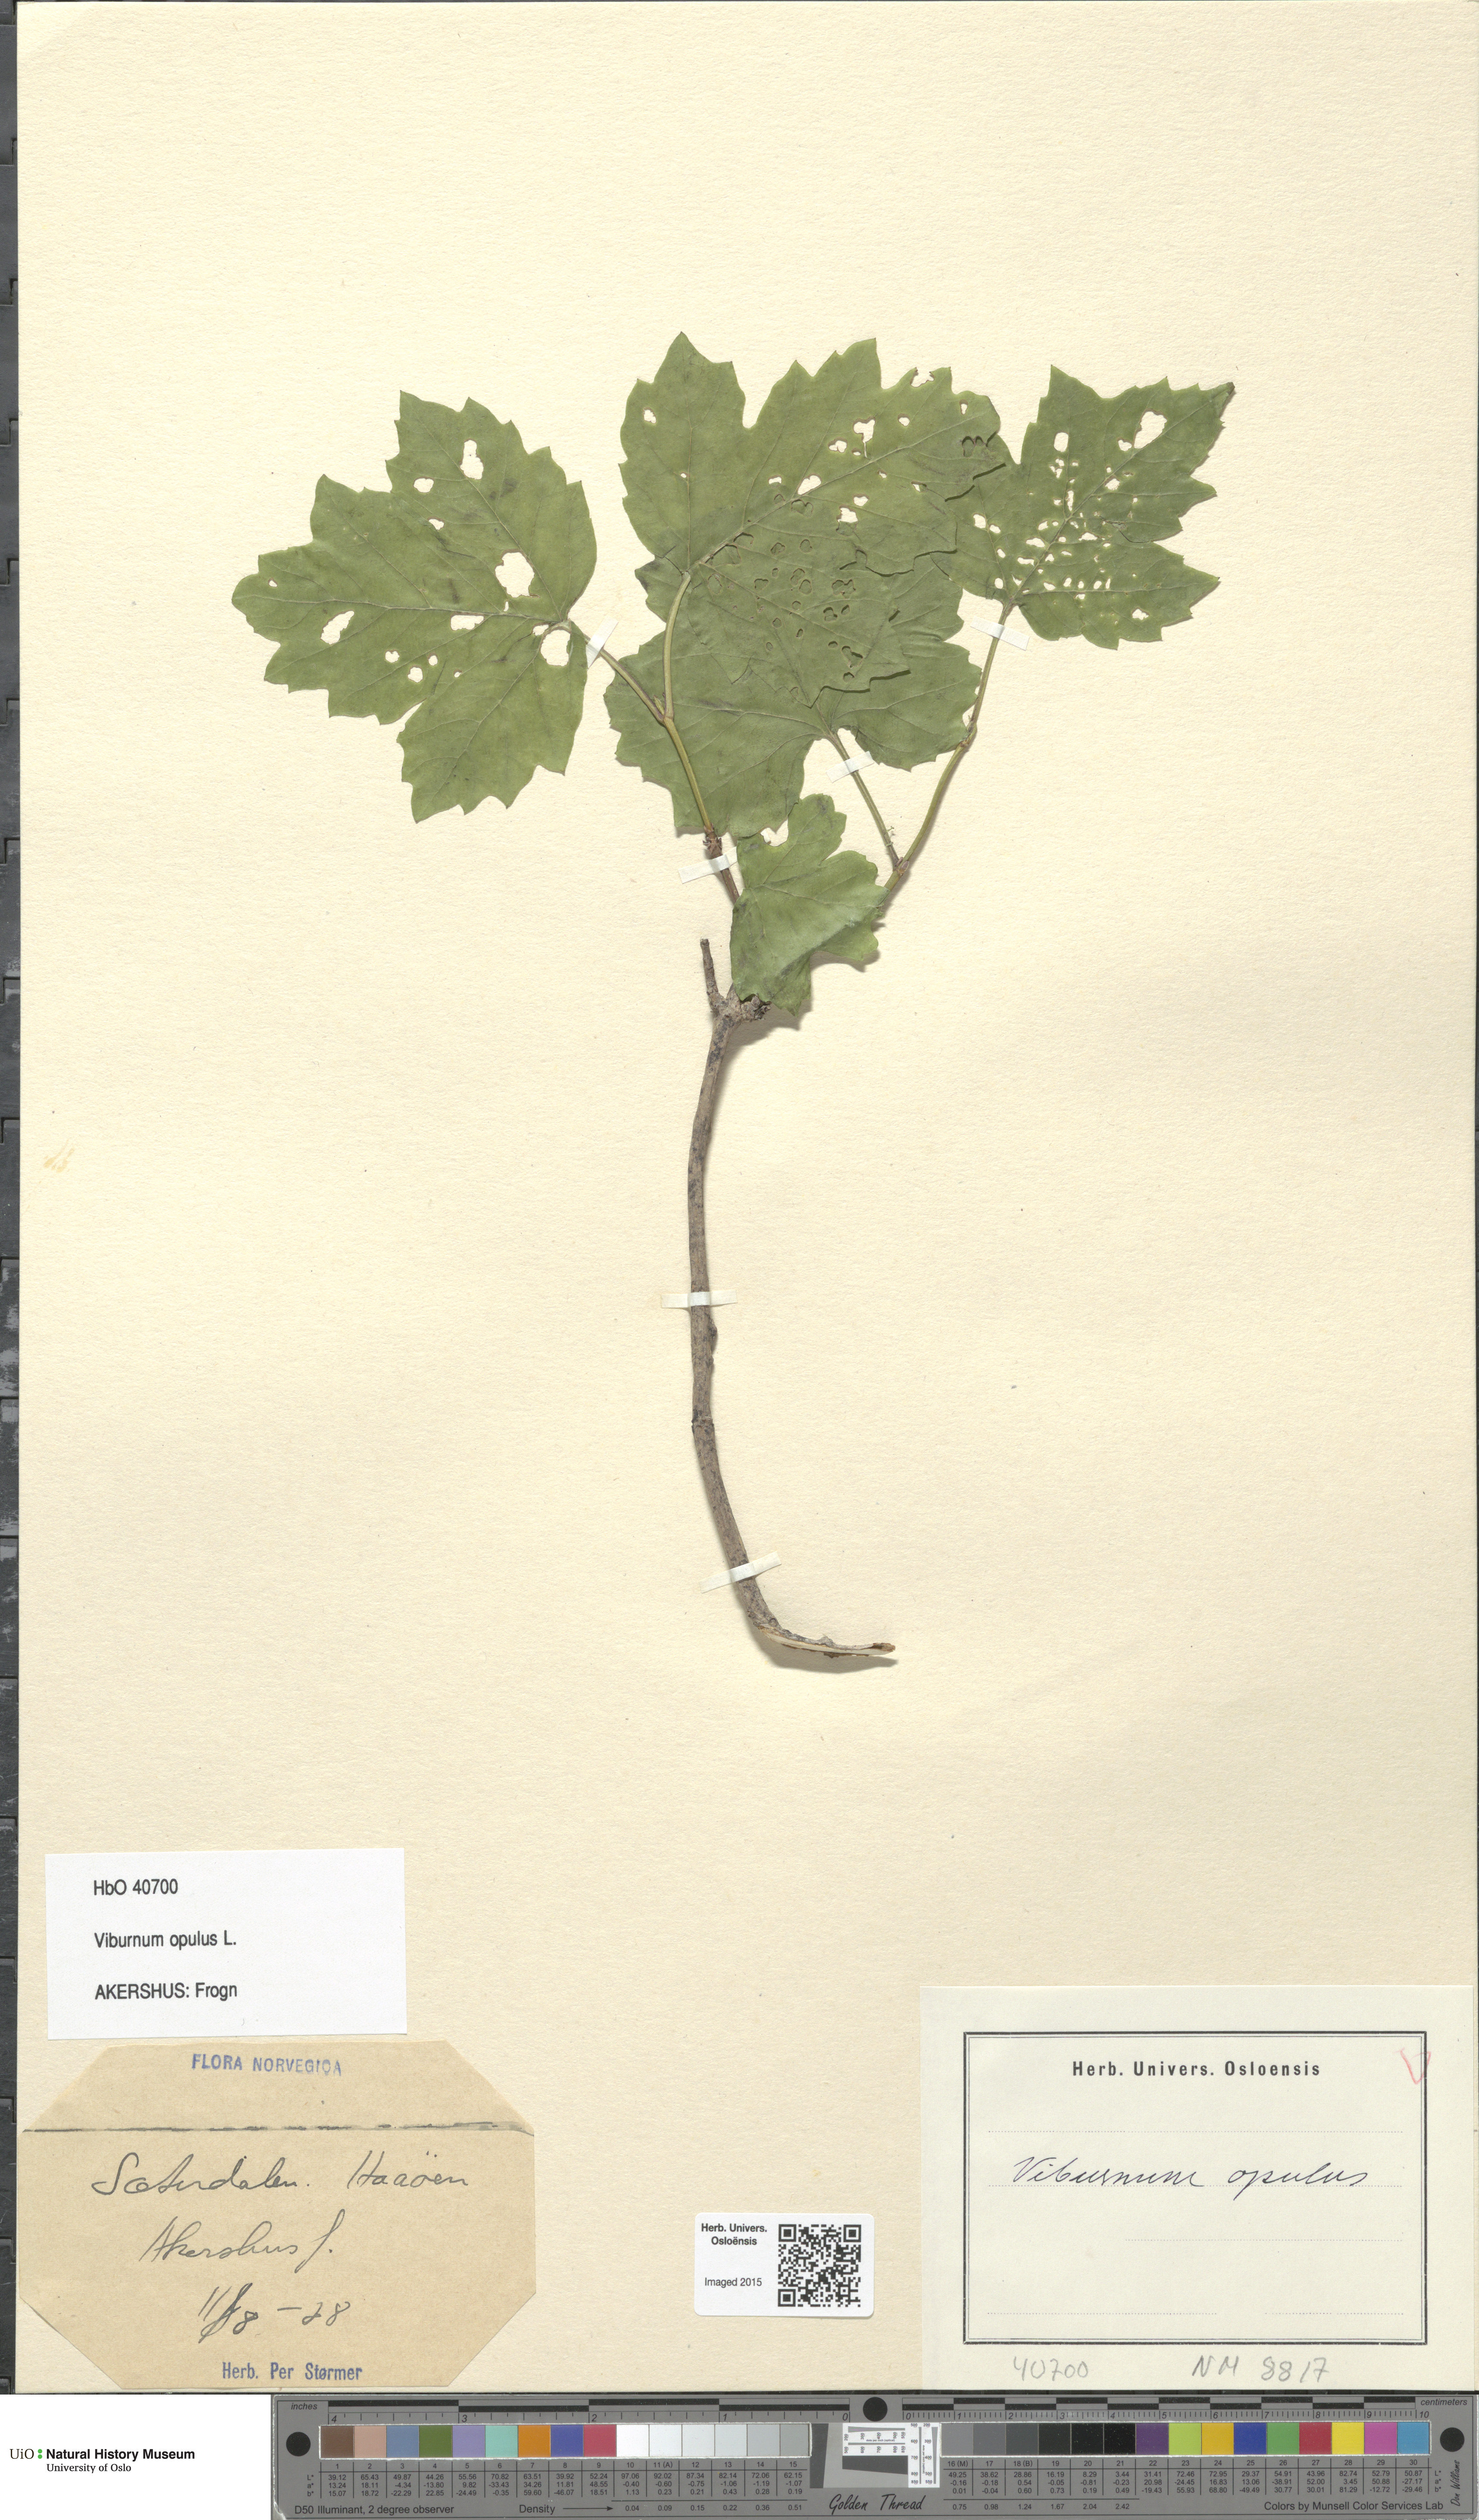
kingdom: Plantae
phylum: Tracheophyta
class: Magnoliopsida
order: Dipsacales
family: Viburnaceae
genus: Viburnum
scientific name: Viburnum opulus
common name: Guelder-rose
